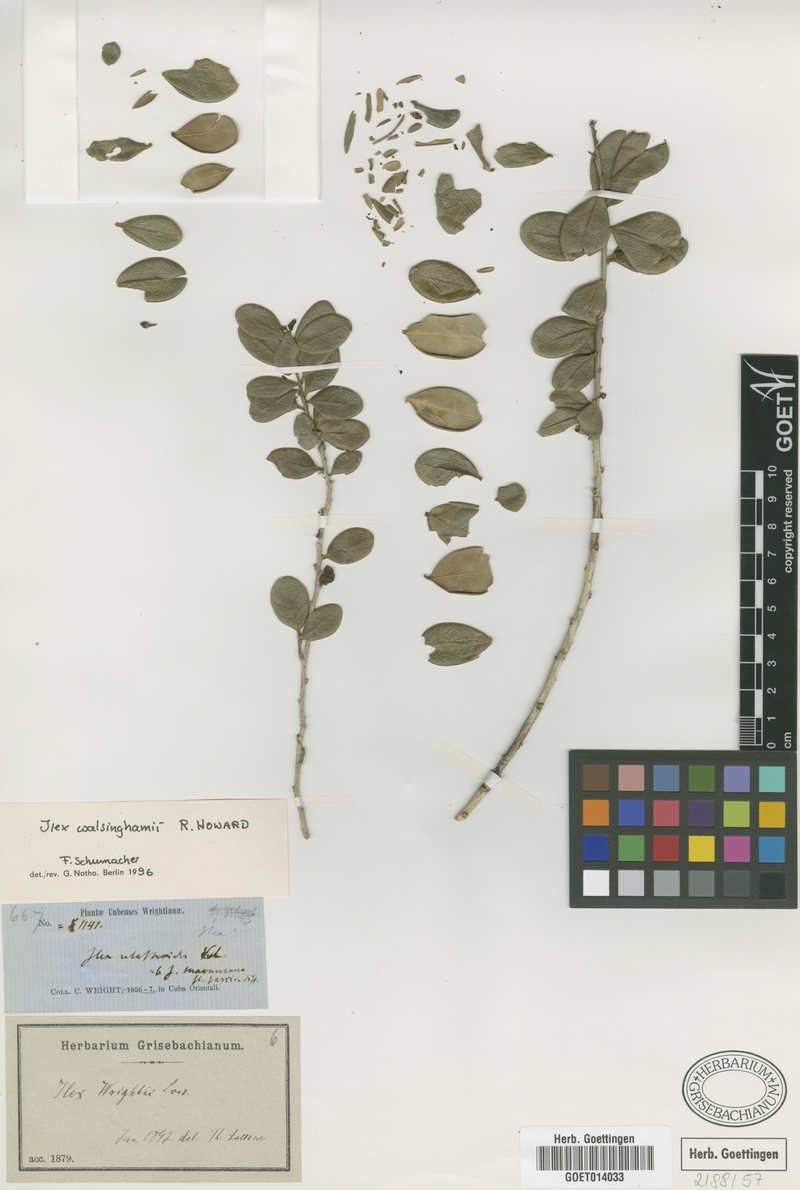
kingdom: Plantae
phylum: Tracheophyta
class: Magnoliopsida
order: Aquifoliales
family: Aquifoliaceae
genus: Ilex
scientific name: Ilex hypaneura
